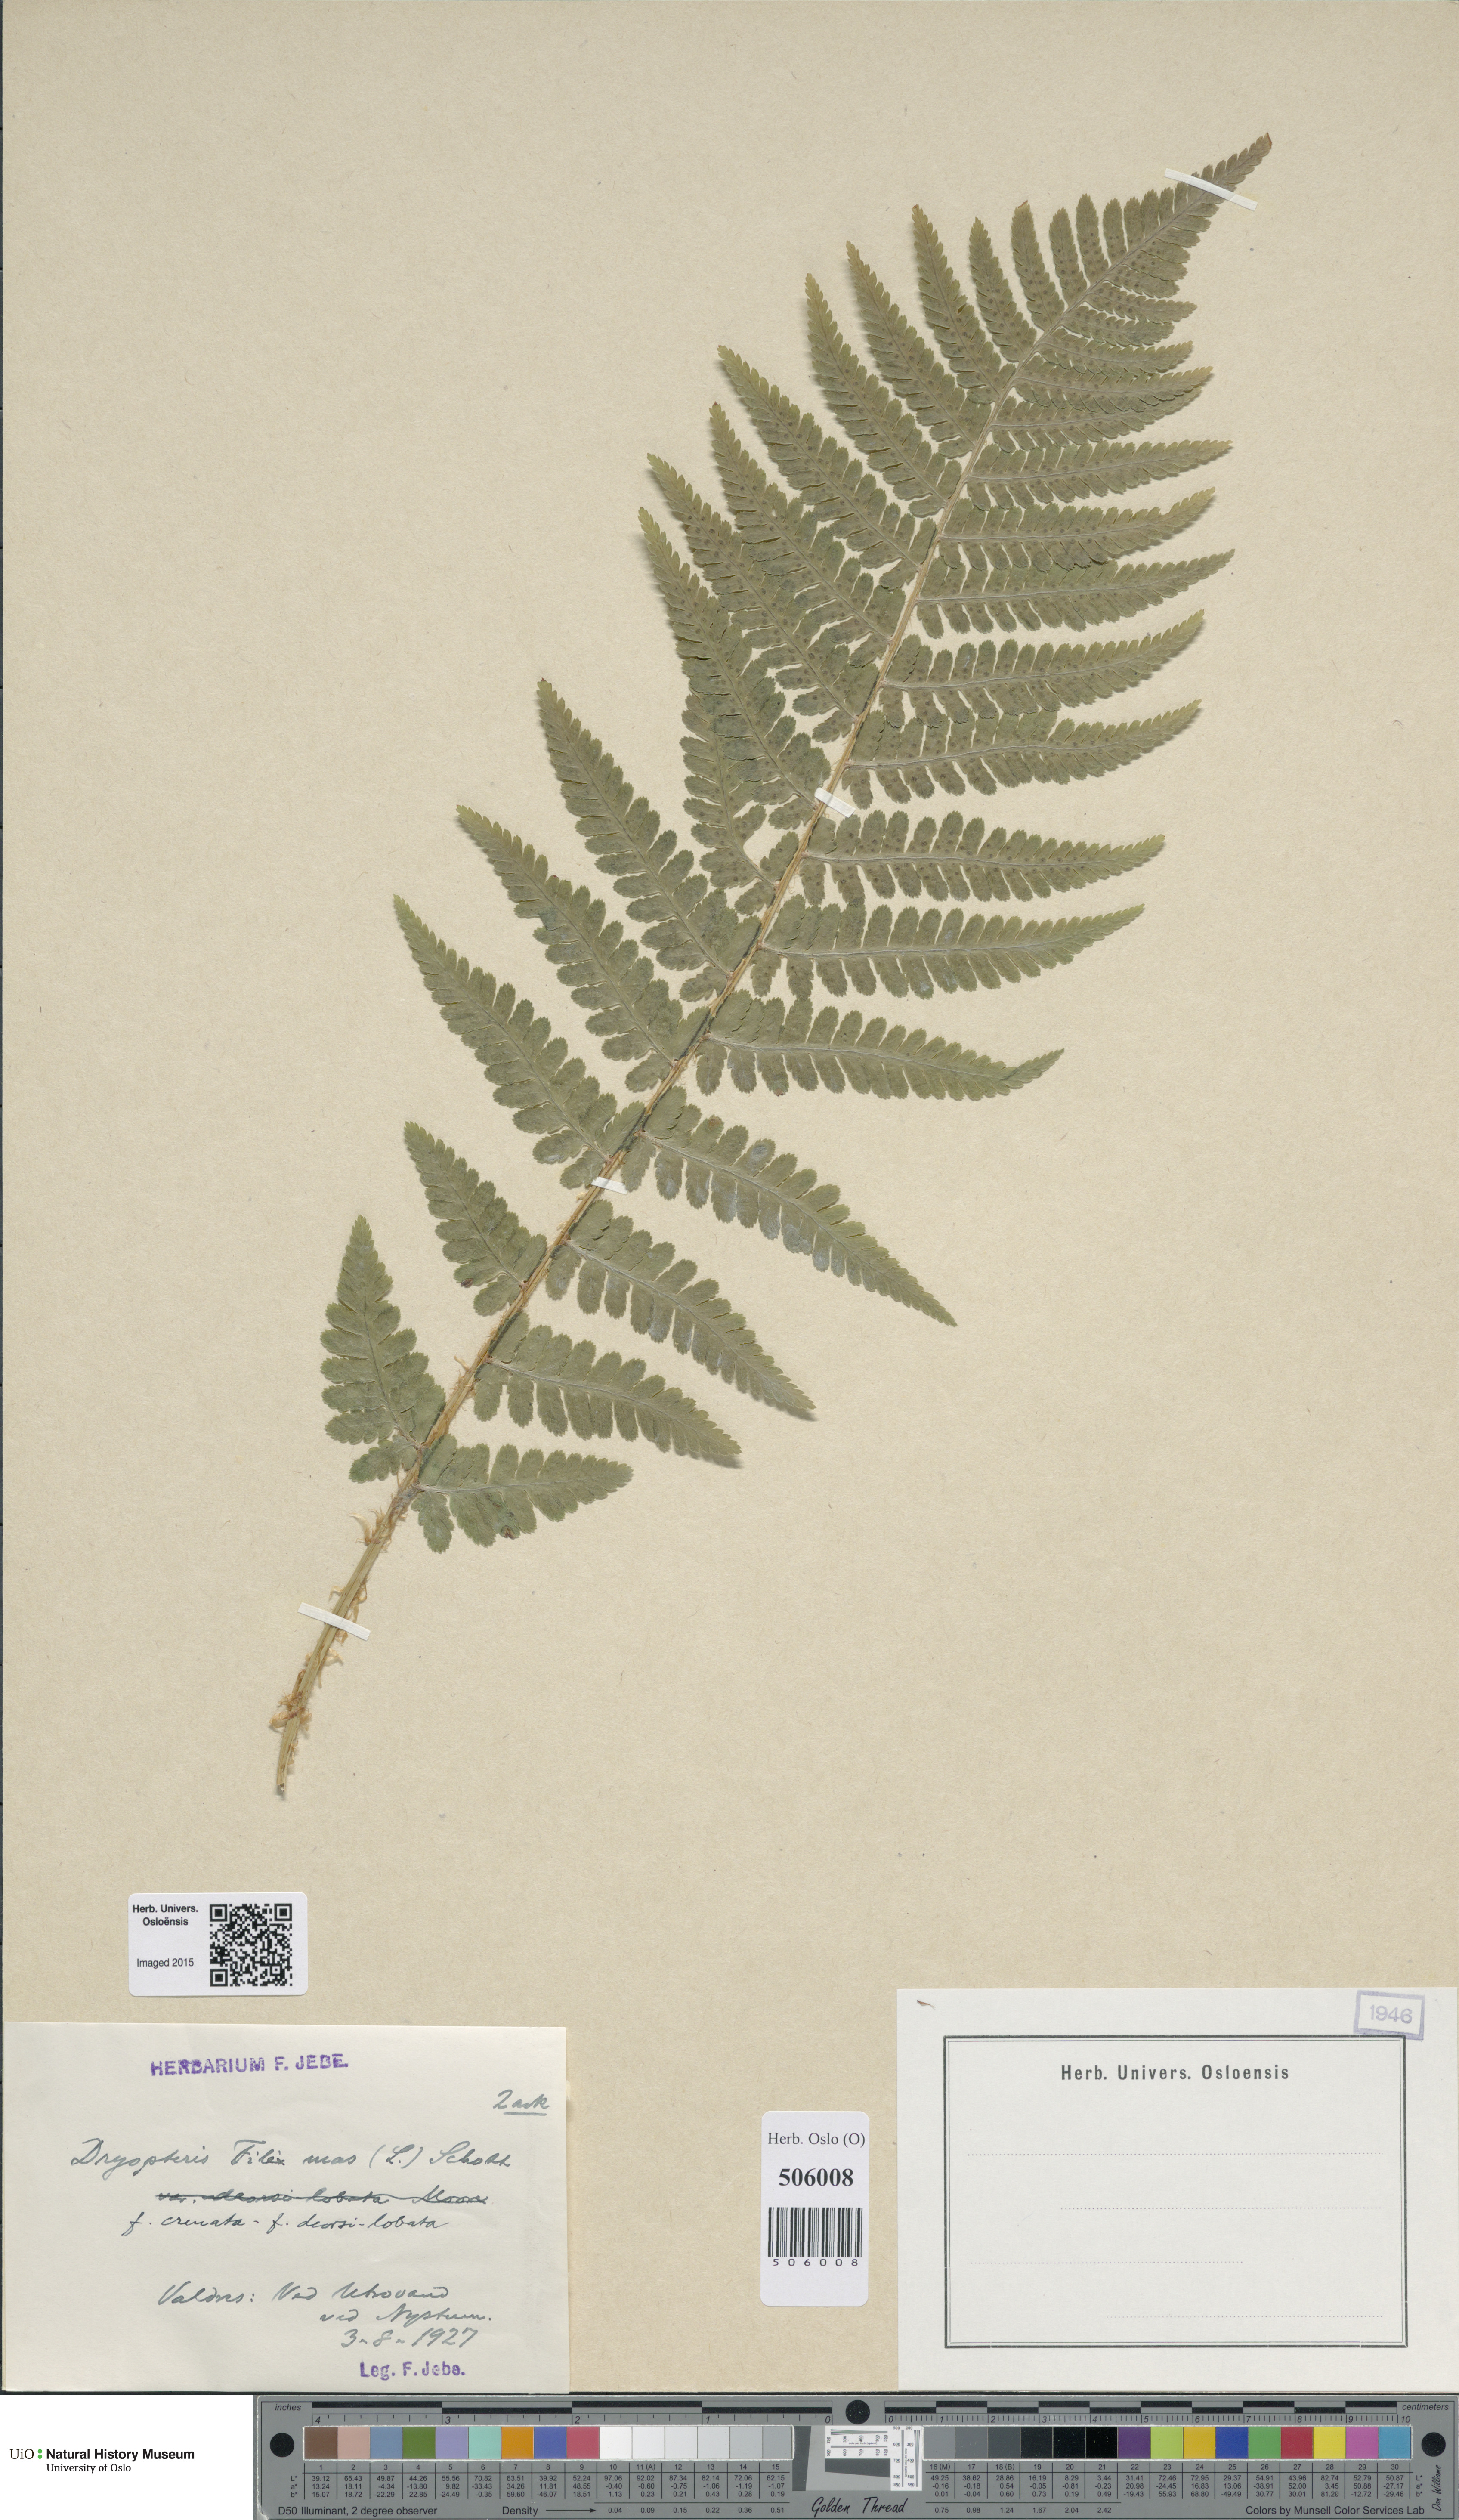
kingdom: Plantae
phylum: Tracheophyta
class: Polypodiopsida
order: Polypodiales
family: Dryopteridaceae
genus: Dryopteris
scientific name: Dryopteris filix-mas
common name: Male fern
